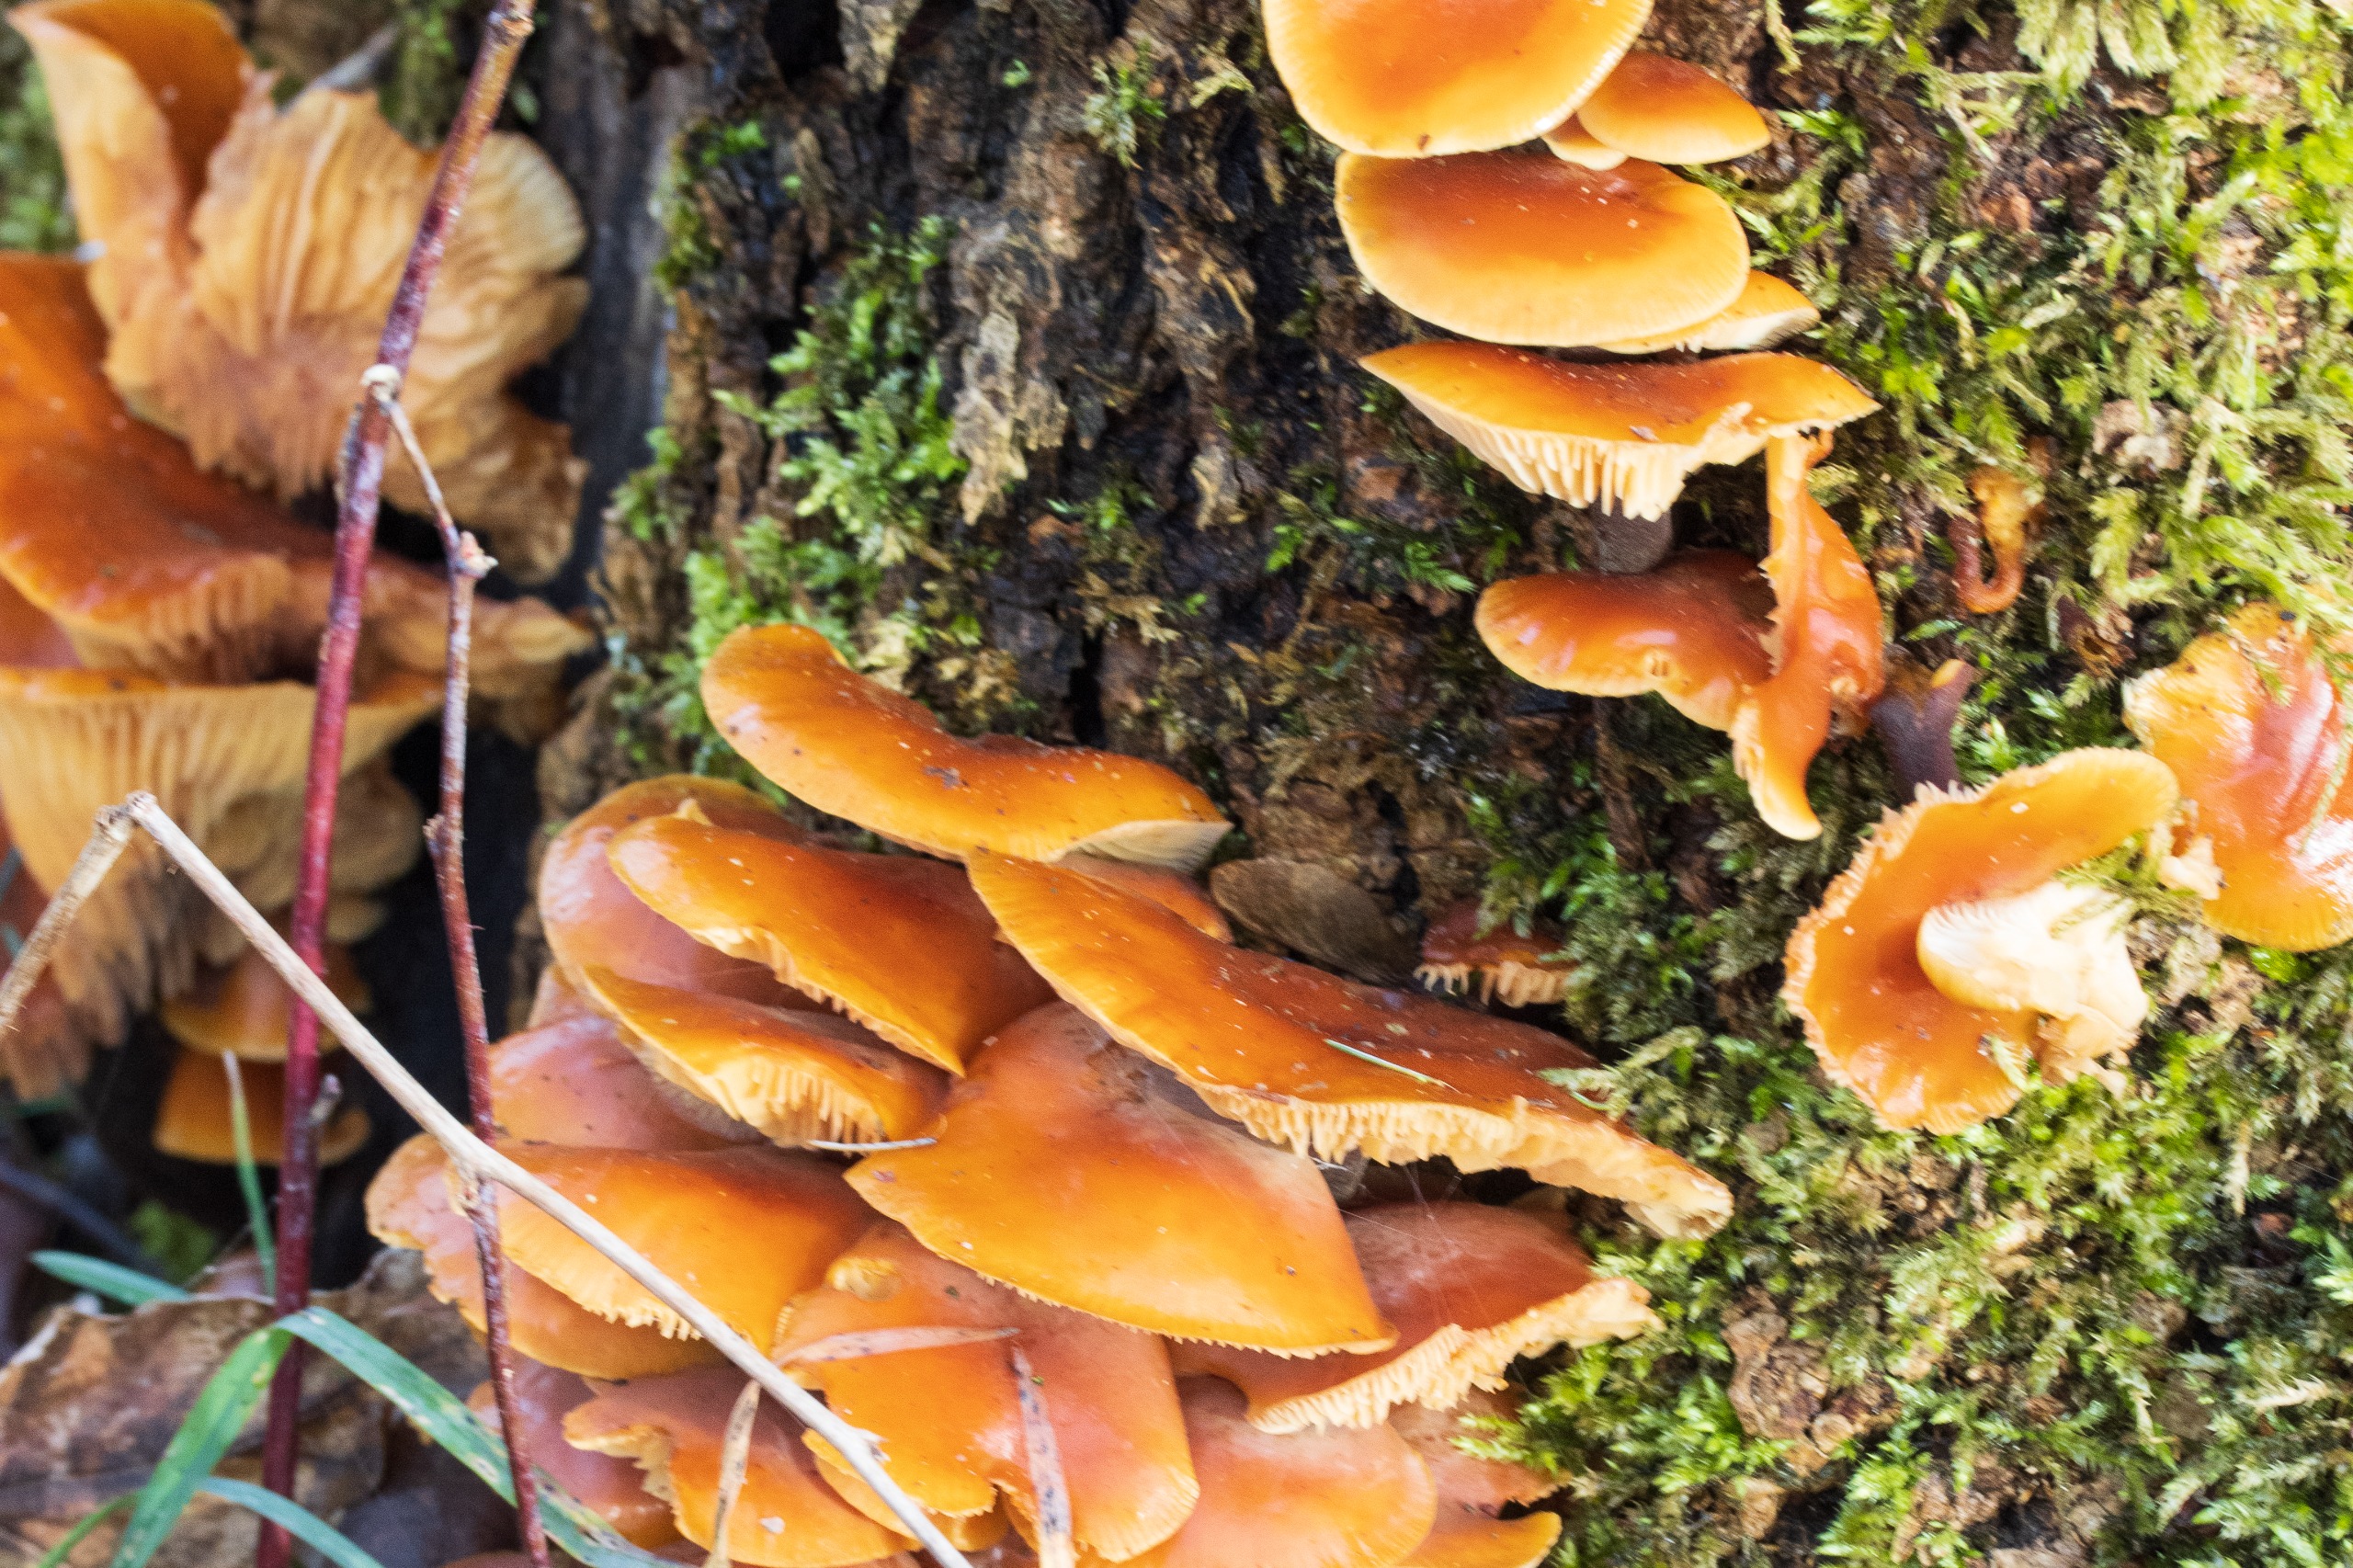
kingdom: Fungi
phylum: Basidiomycota
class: Agaricomycetes
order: Agaricales
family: Physalacriaceae
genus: Flammulina
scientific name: Flammulina velutipes
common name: Gul fløjlsfod
